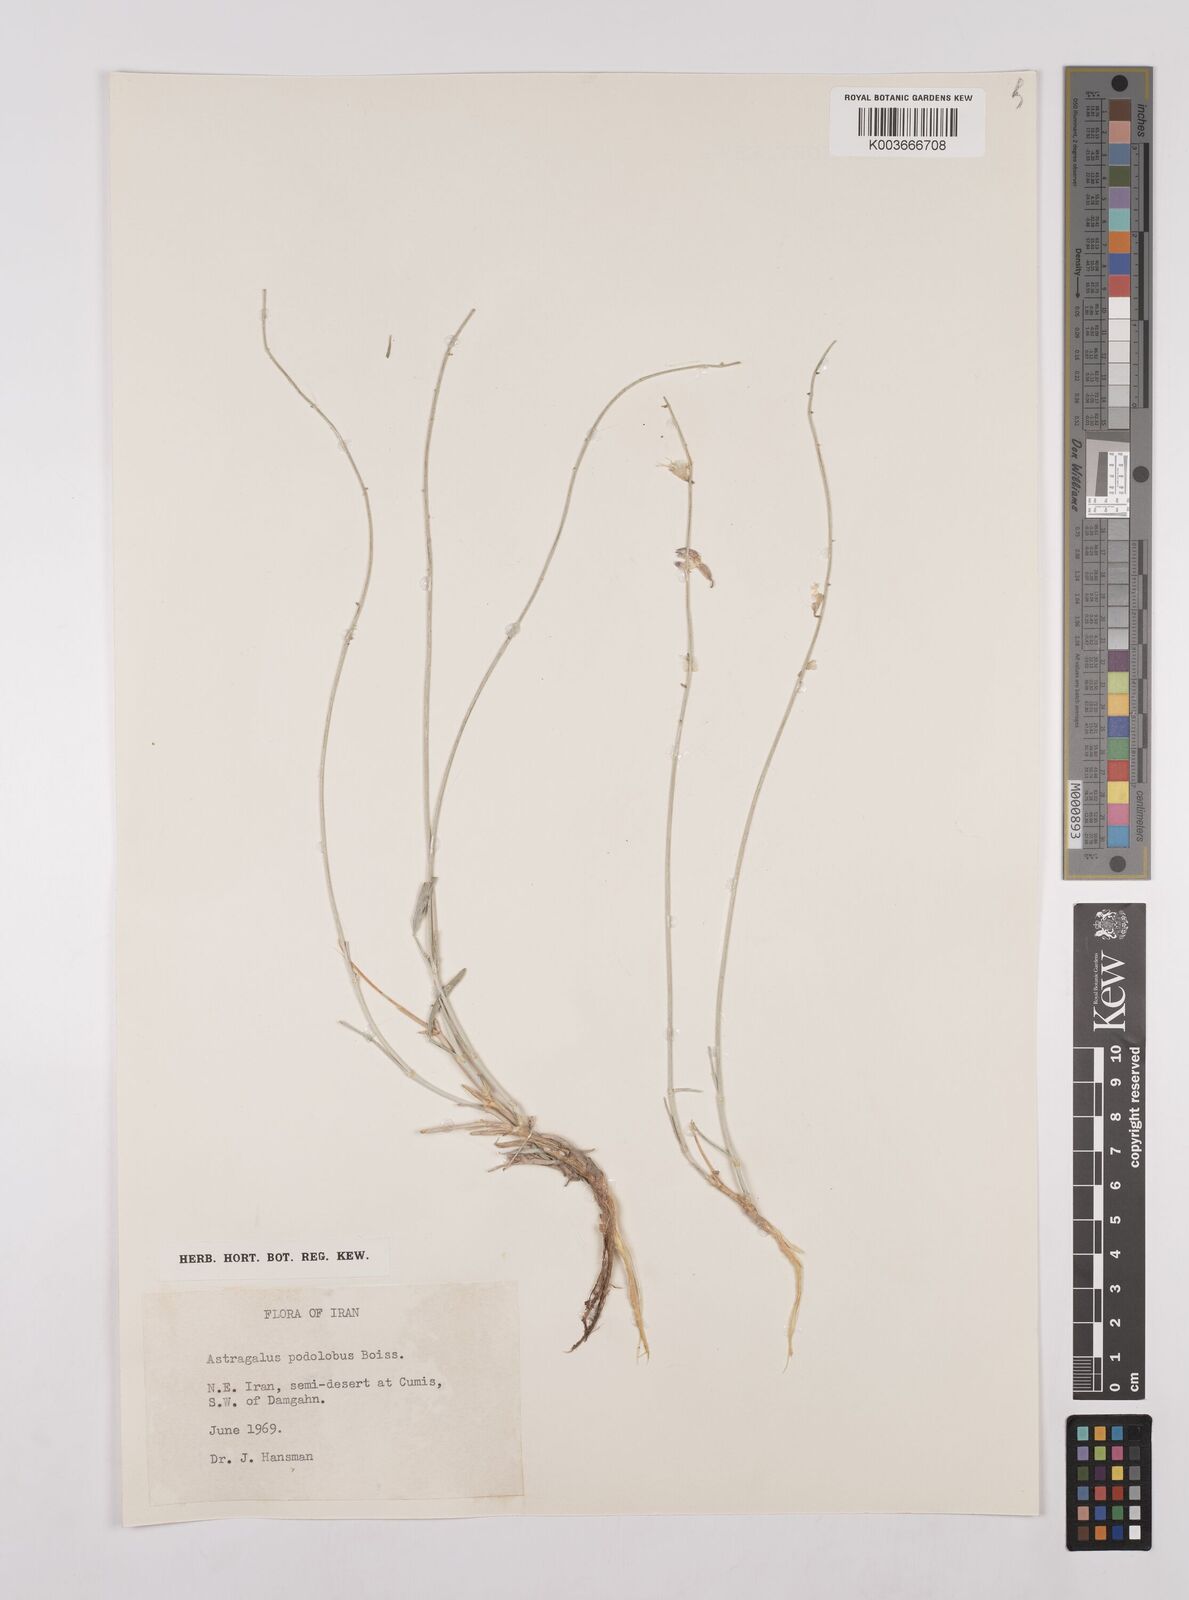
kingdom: Plantae
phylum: Tracheophyta
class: Magnoliopsida
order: Fabales
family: Fabaceae
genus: Astragalus
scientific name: Astragalus podolobus
